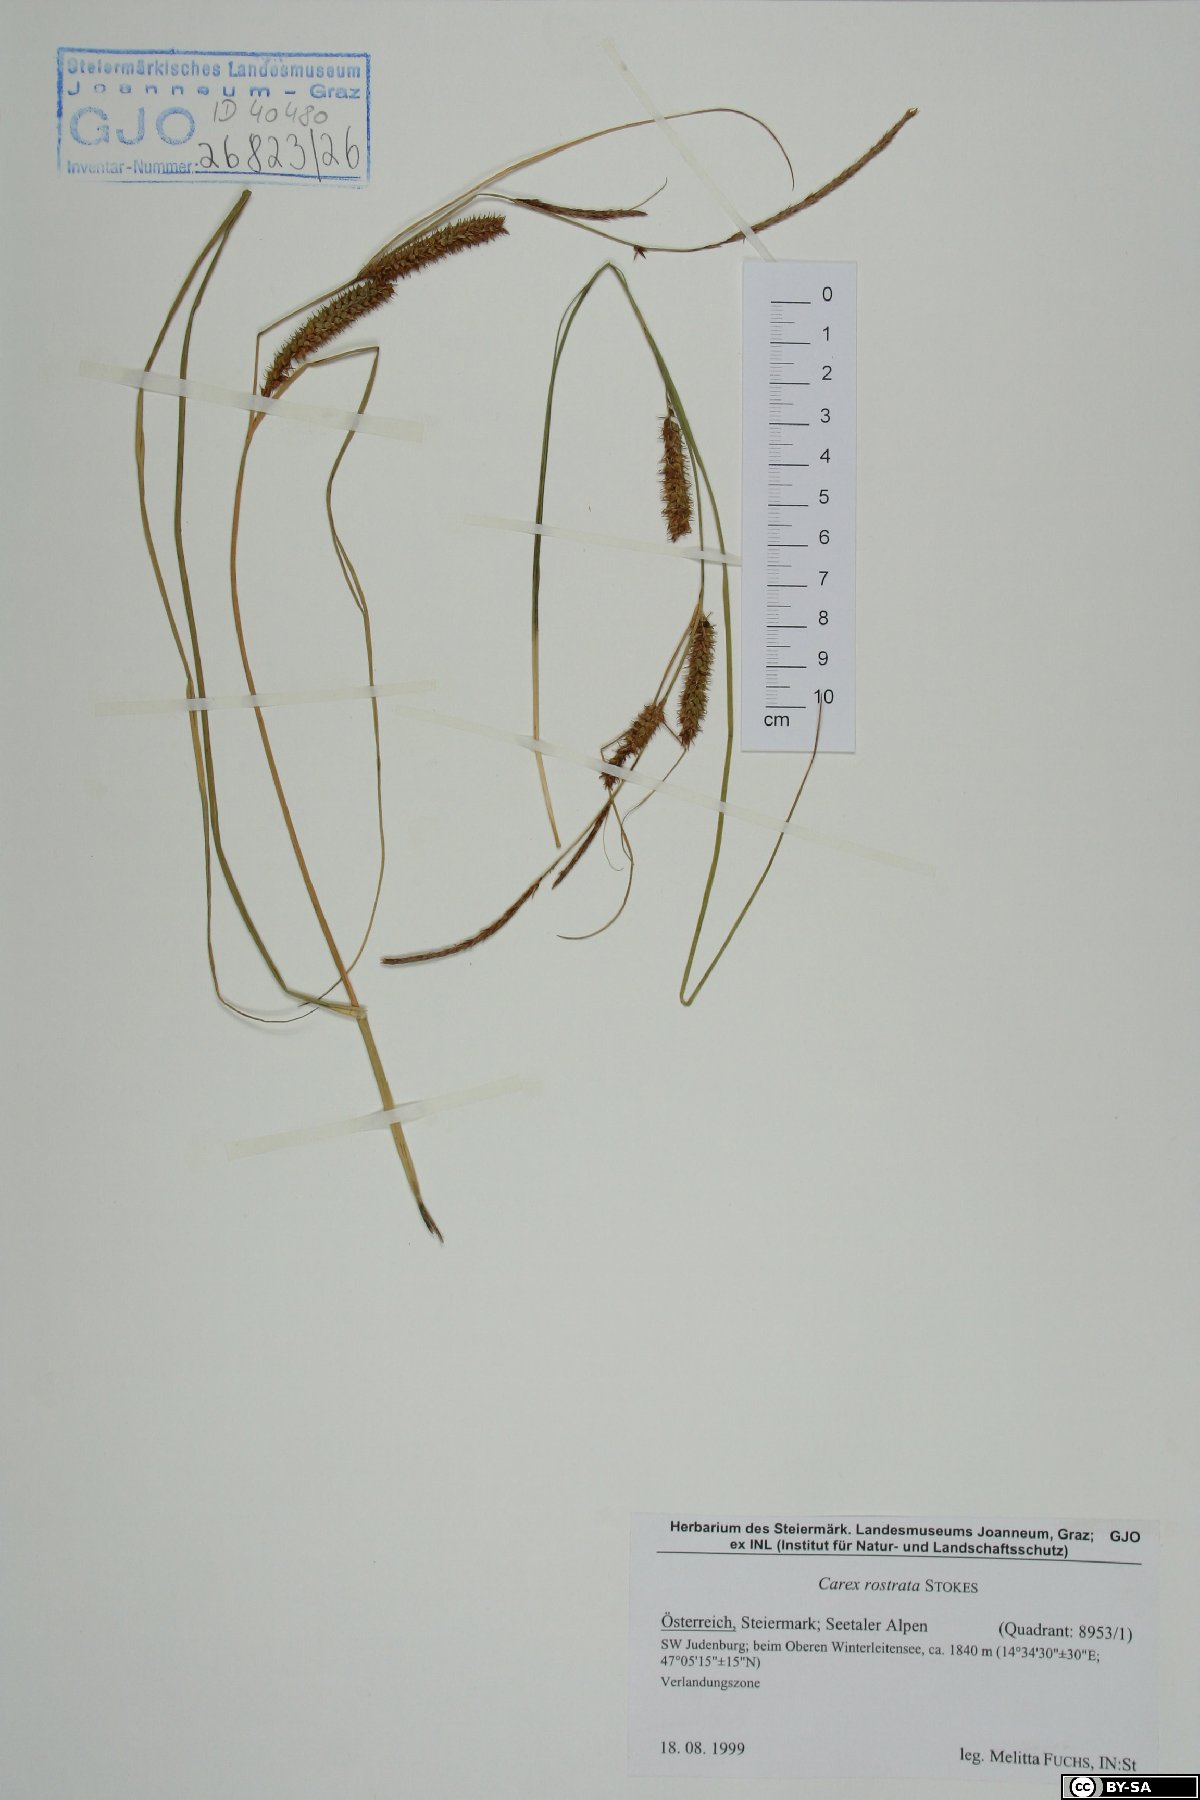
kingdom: Plantae
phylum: Tracheophyta
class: Liliopsida
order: Poales
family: Cyperaceae
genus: Carex
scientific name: Carex rostrata
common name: Bottle sedge
